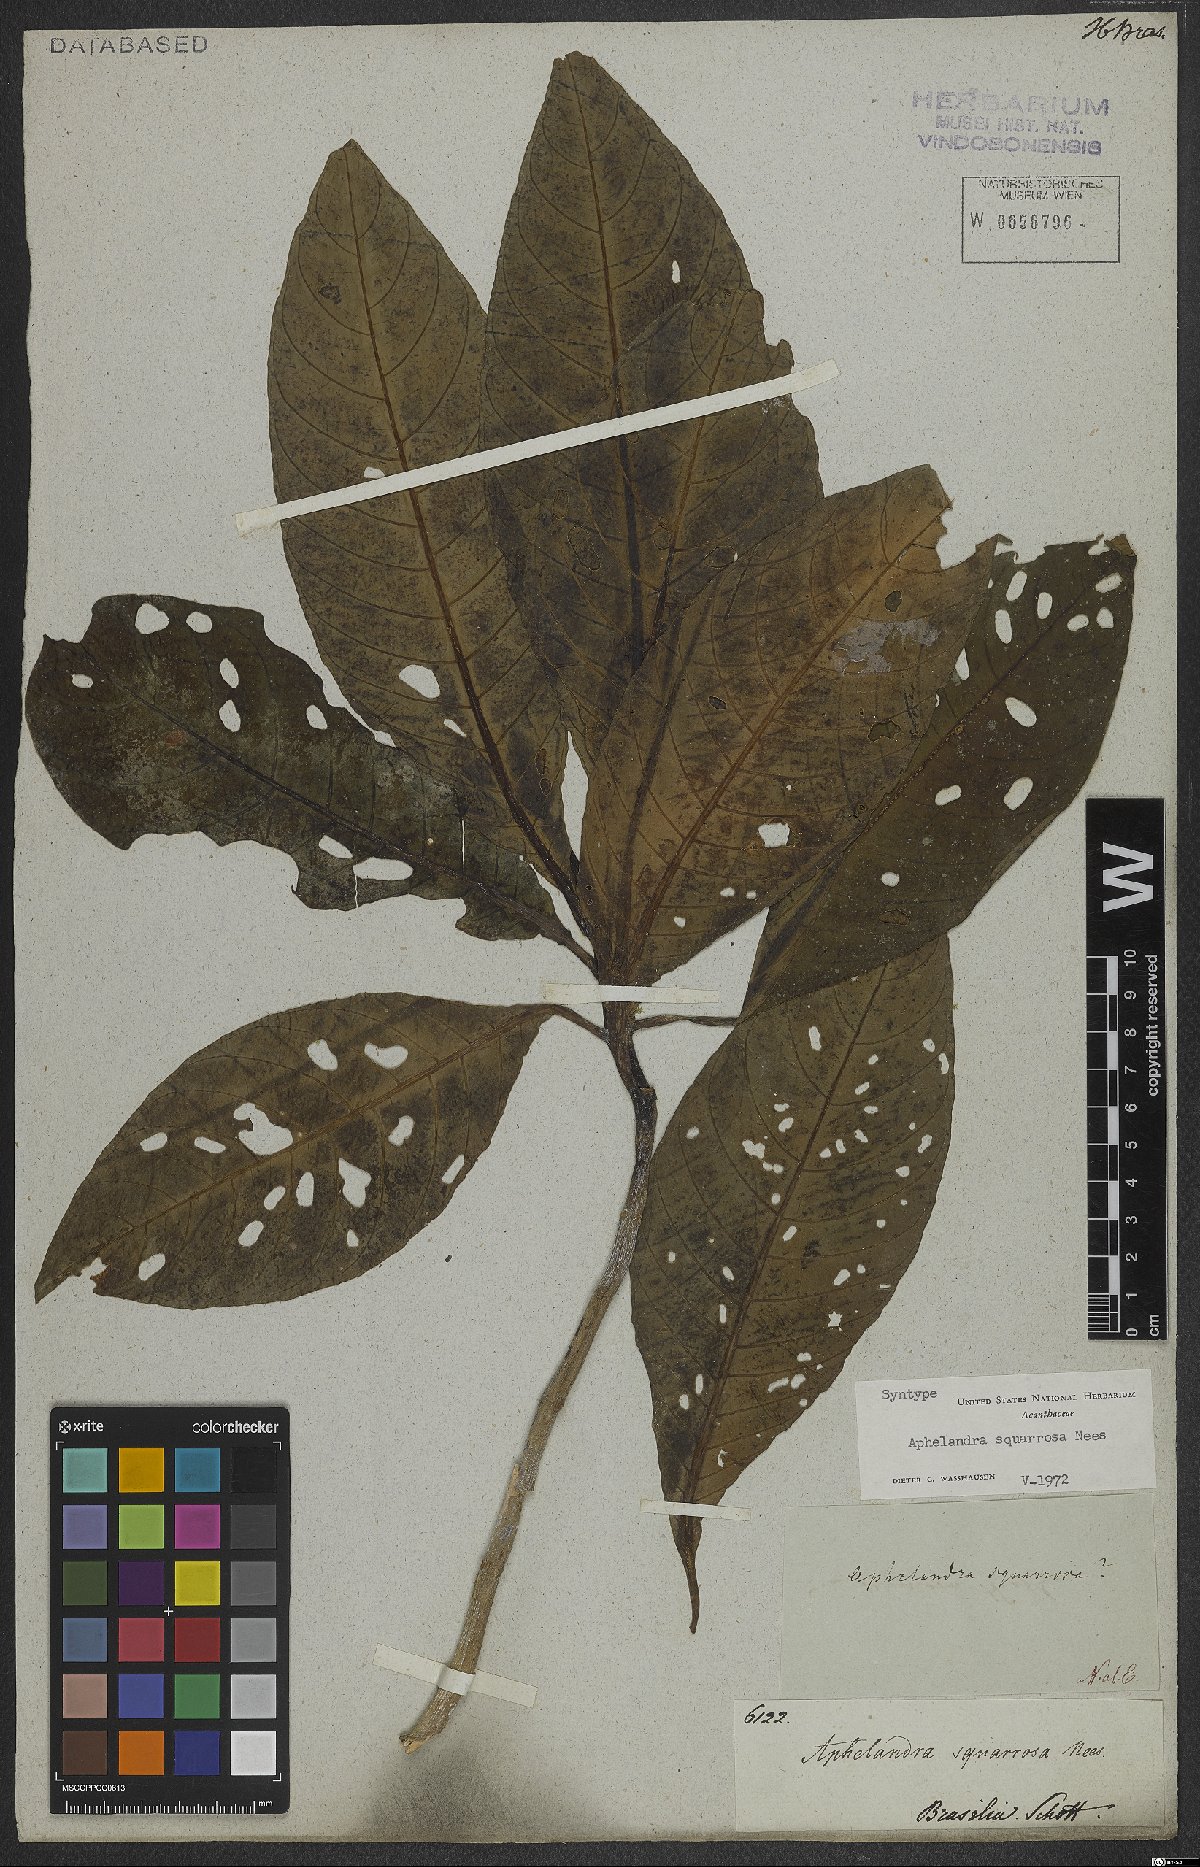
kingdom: Plantae
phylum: Tracheophyta
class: Magnoliopsida
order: Lamiales
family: Acanthaceae
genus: Aphelandra
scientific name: Aphelandra squarrosa
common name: Saffron spike
